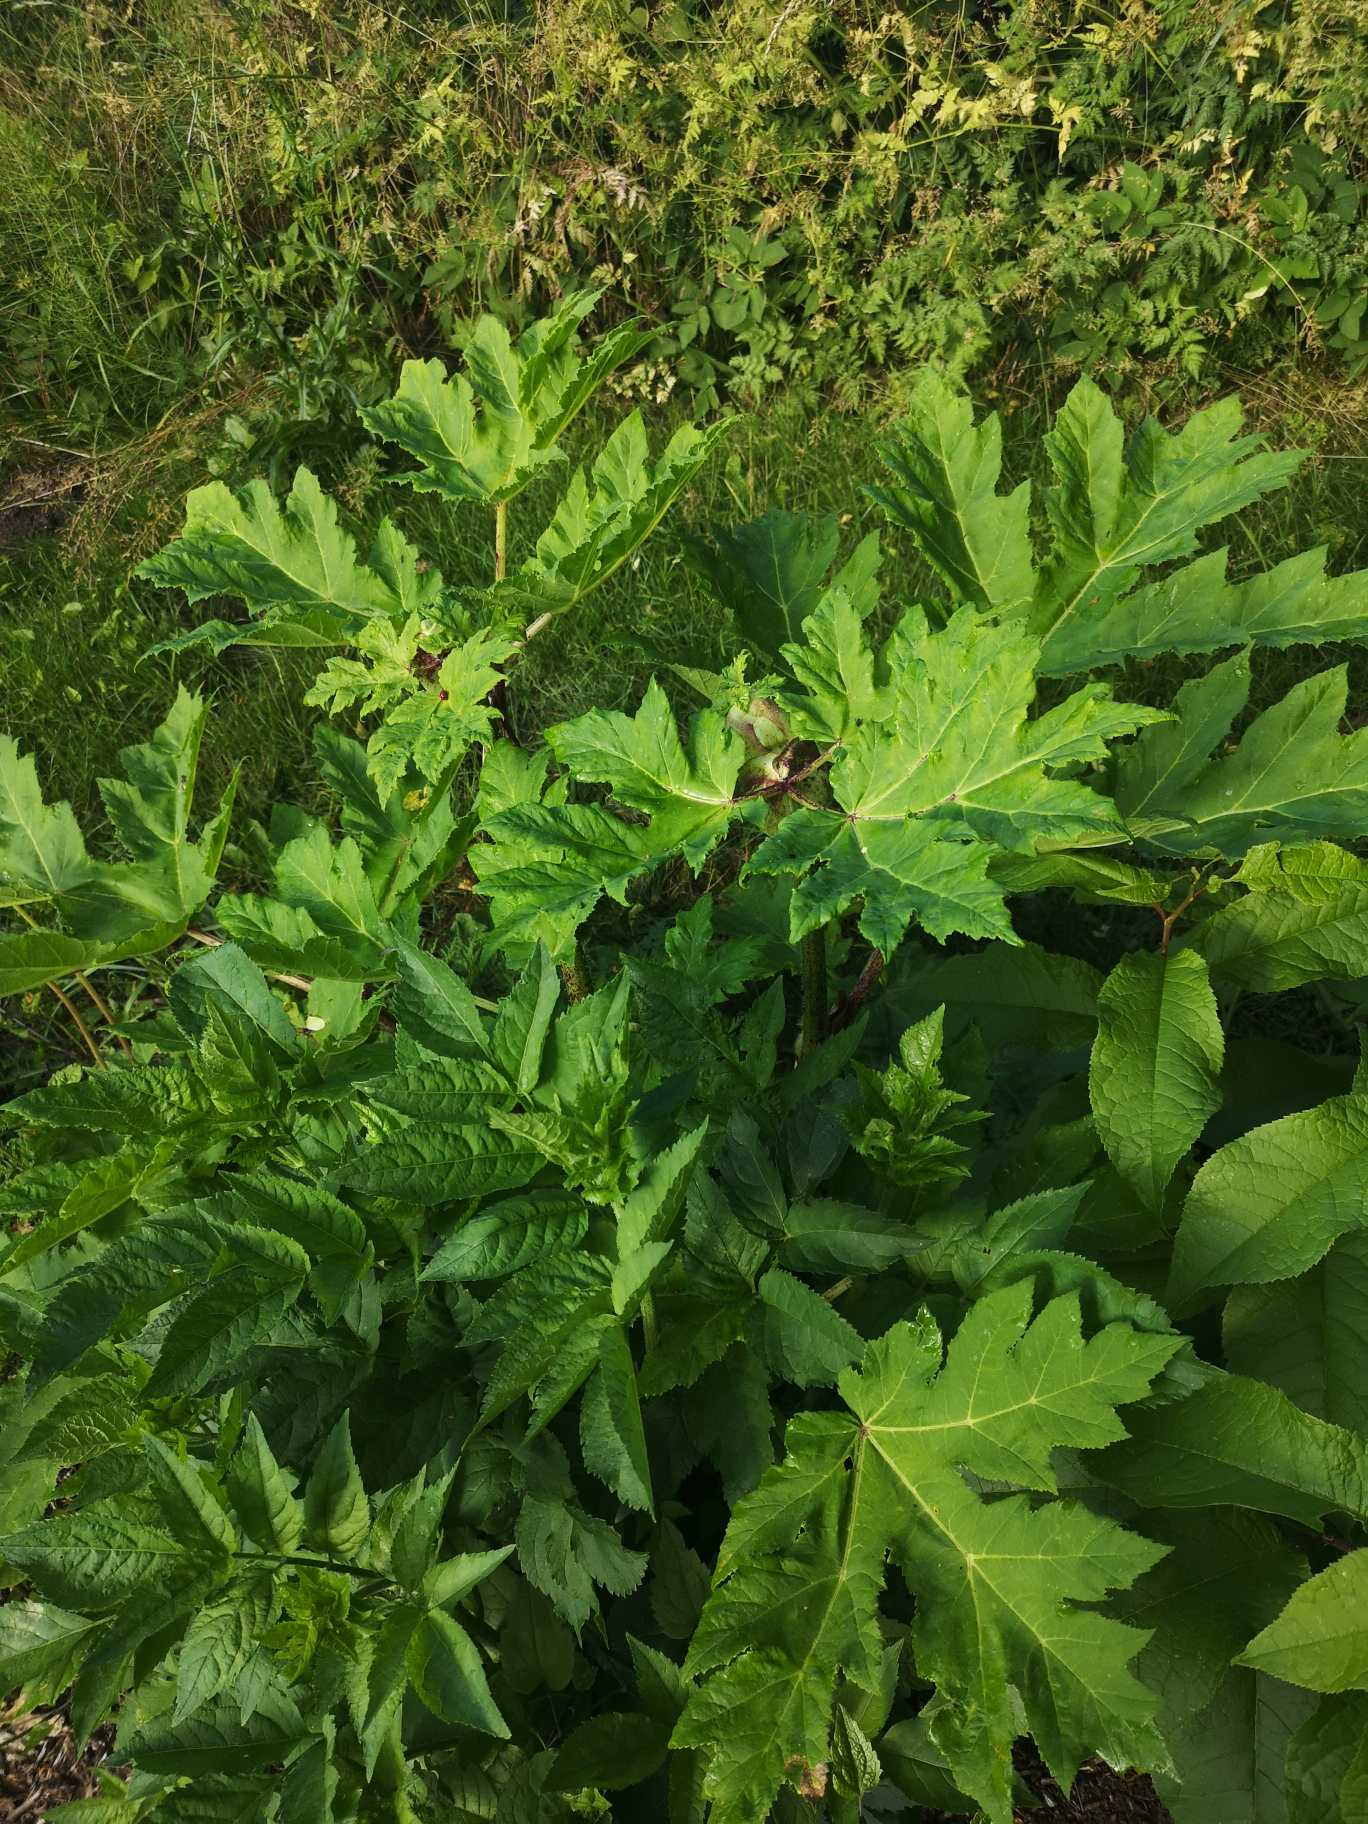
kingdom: Plantae
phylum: Tracheophyta
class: Magnoliopsida
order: Apiales
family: Apiaceae
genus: Heracleum
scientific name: Heracleum mantegazzianum
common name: Kæmpe-bjørneklo
